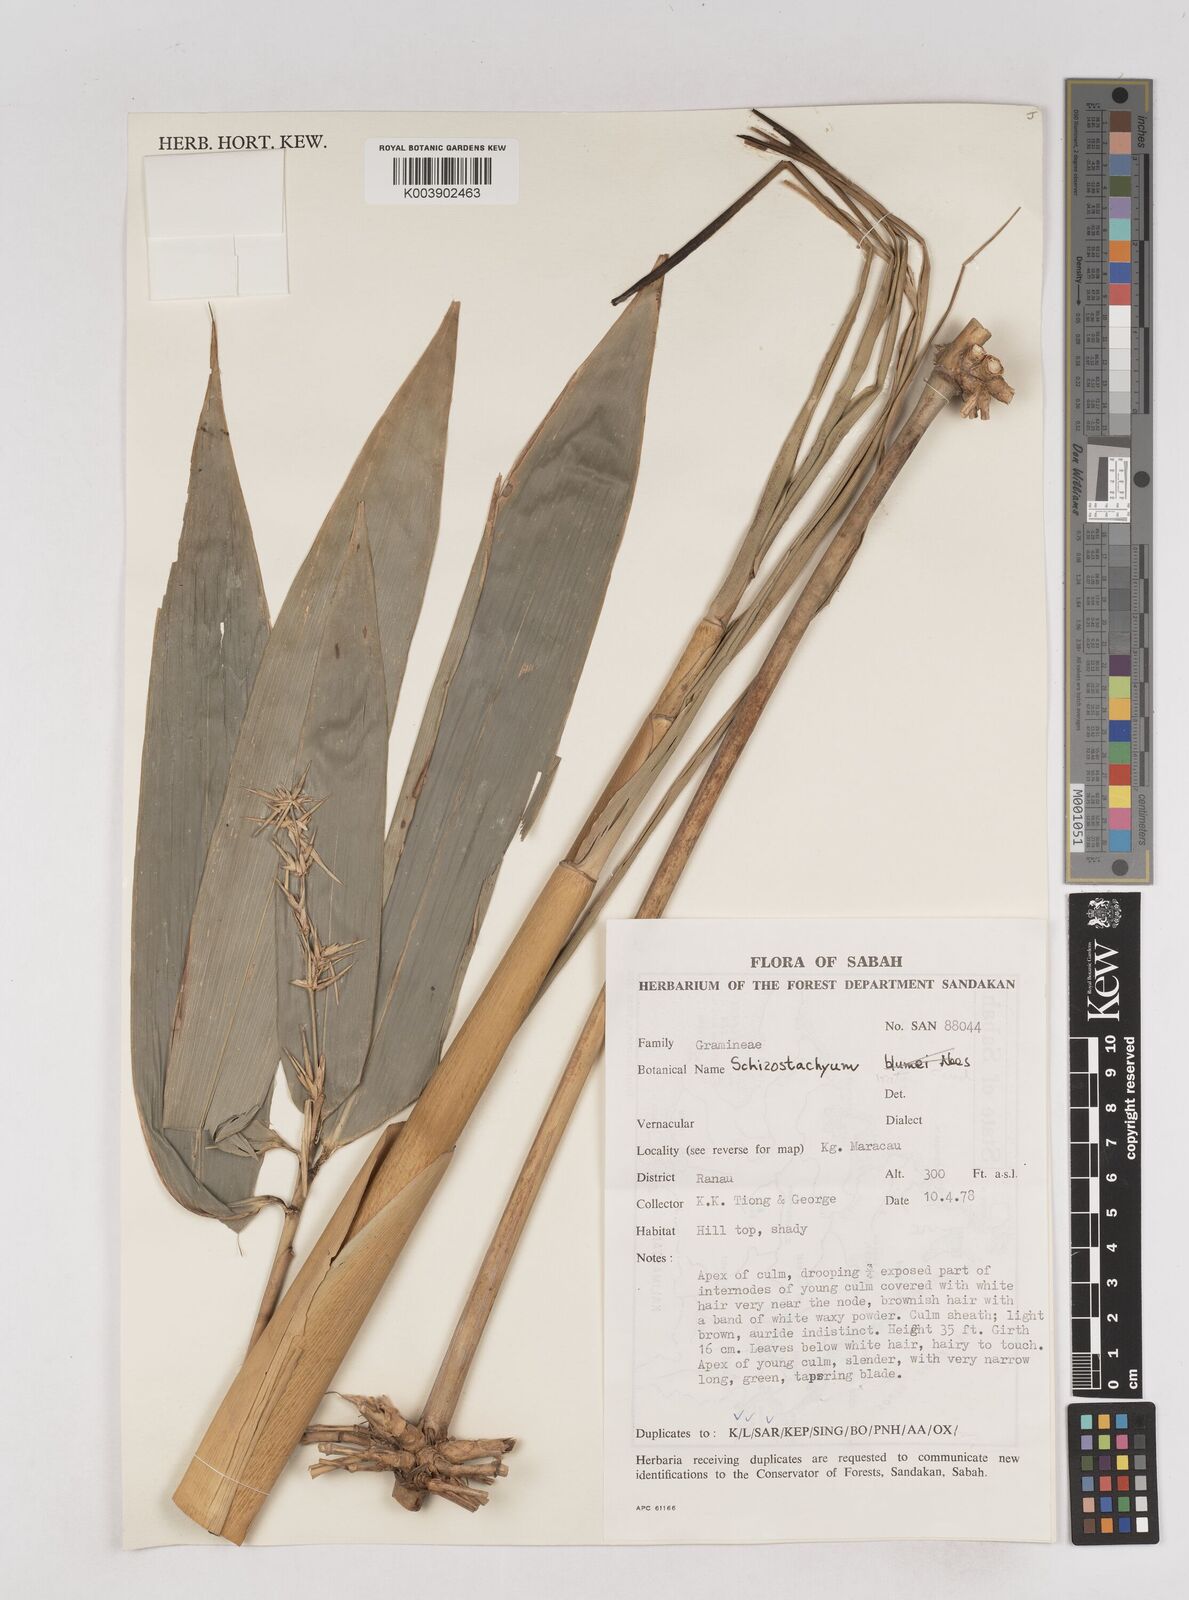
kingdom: Plantae
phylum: Tracheophyta
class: Liliopsida
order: Poales
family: Poaceae
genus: Schizostachyum
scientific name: Schizostachyum
